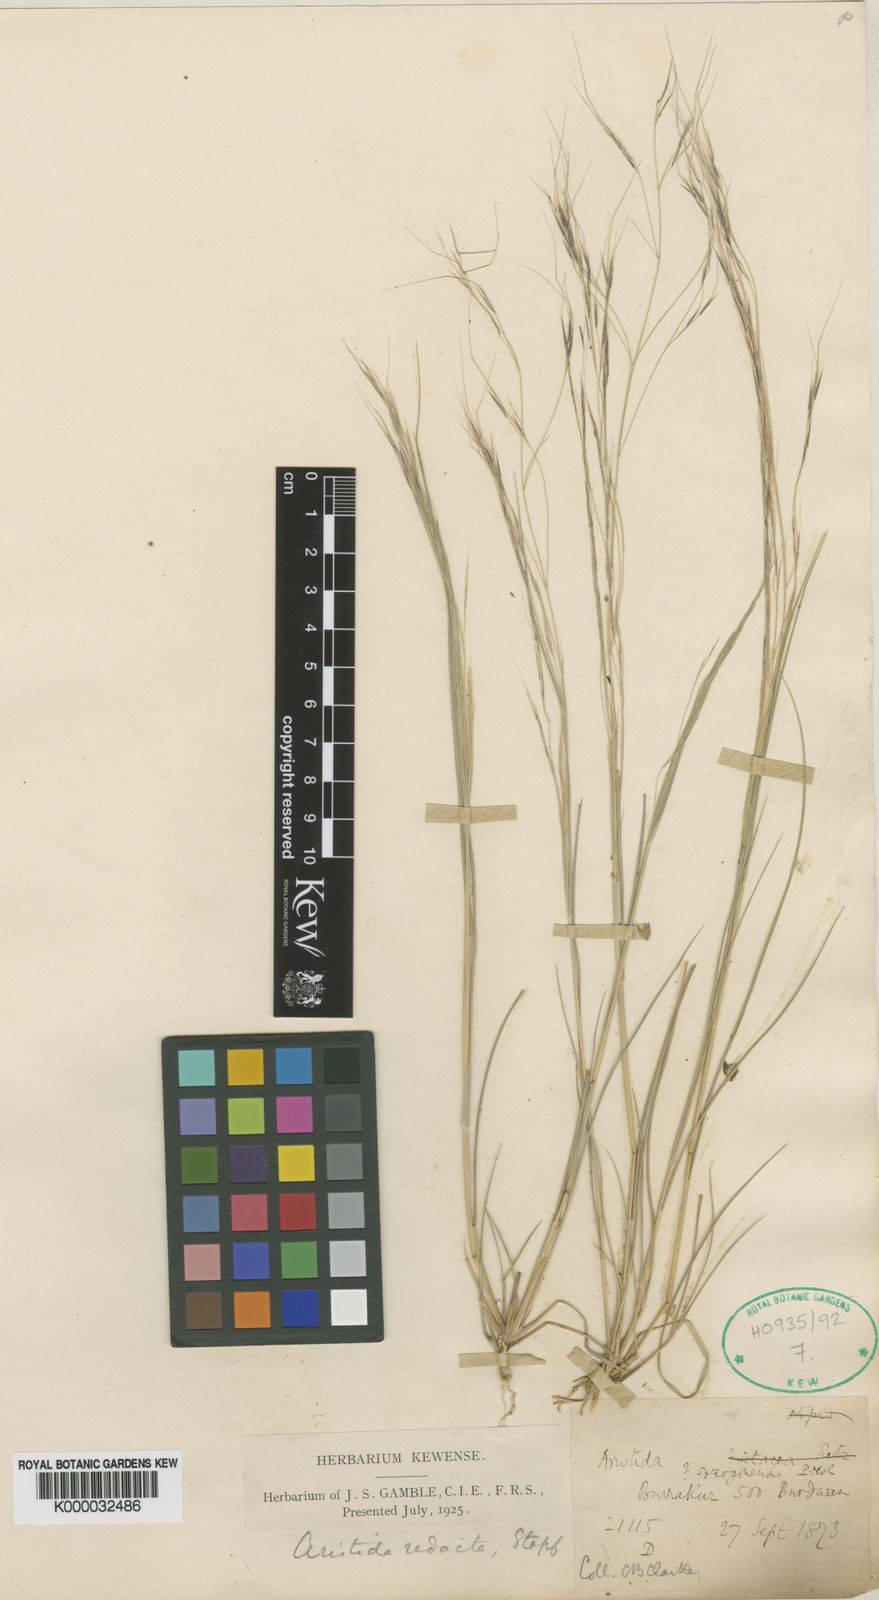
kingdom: Plantae
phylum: Tracheophyta
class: Liliopsida
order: Poales
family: Poaceae
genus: Aristida
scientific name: Aristida redacta
